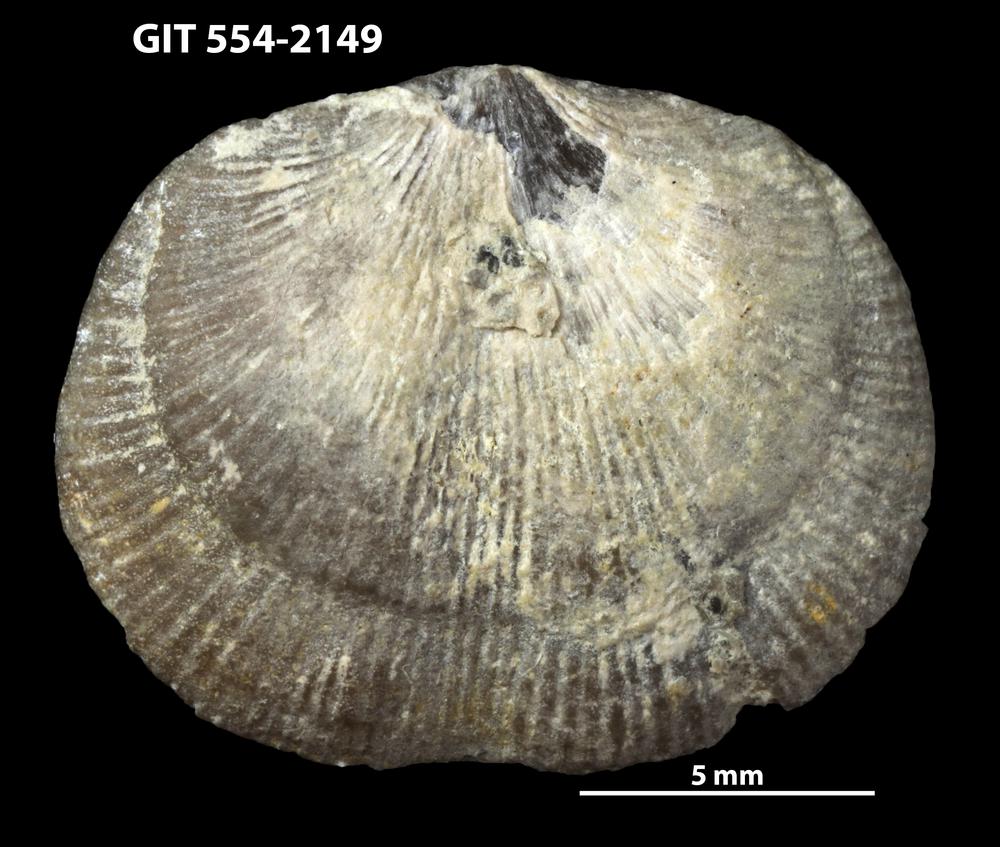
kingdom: Animalia
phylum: Brachiopoda
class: Rhynchonellata
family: Wangyuiidae
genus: Wangyuia
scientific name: Wangyuia
